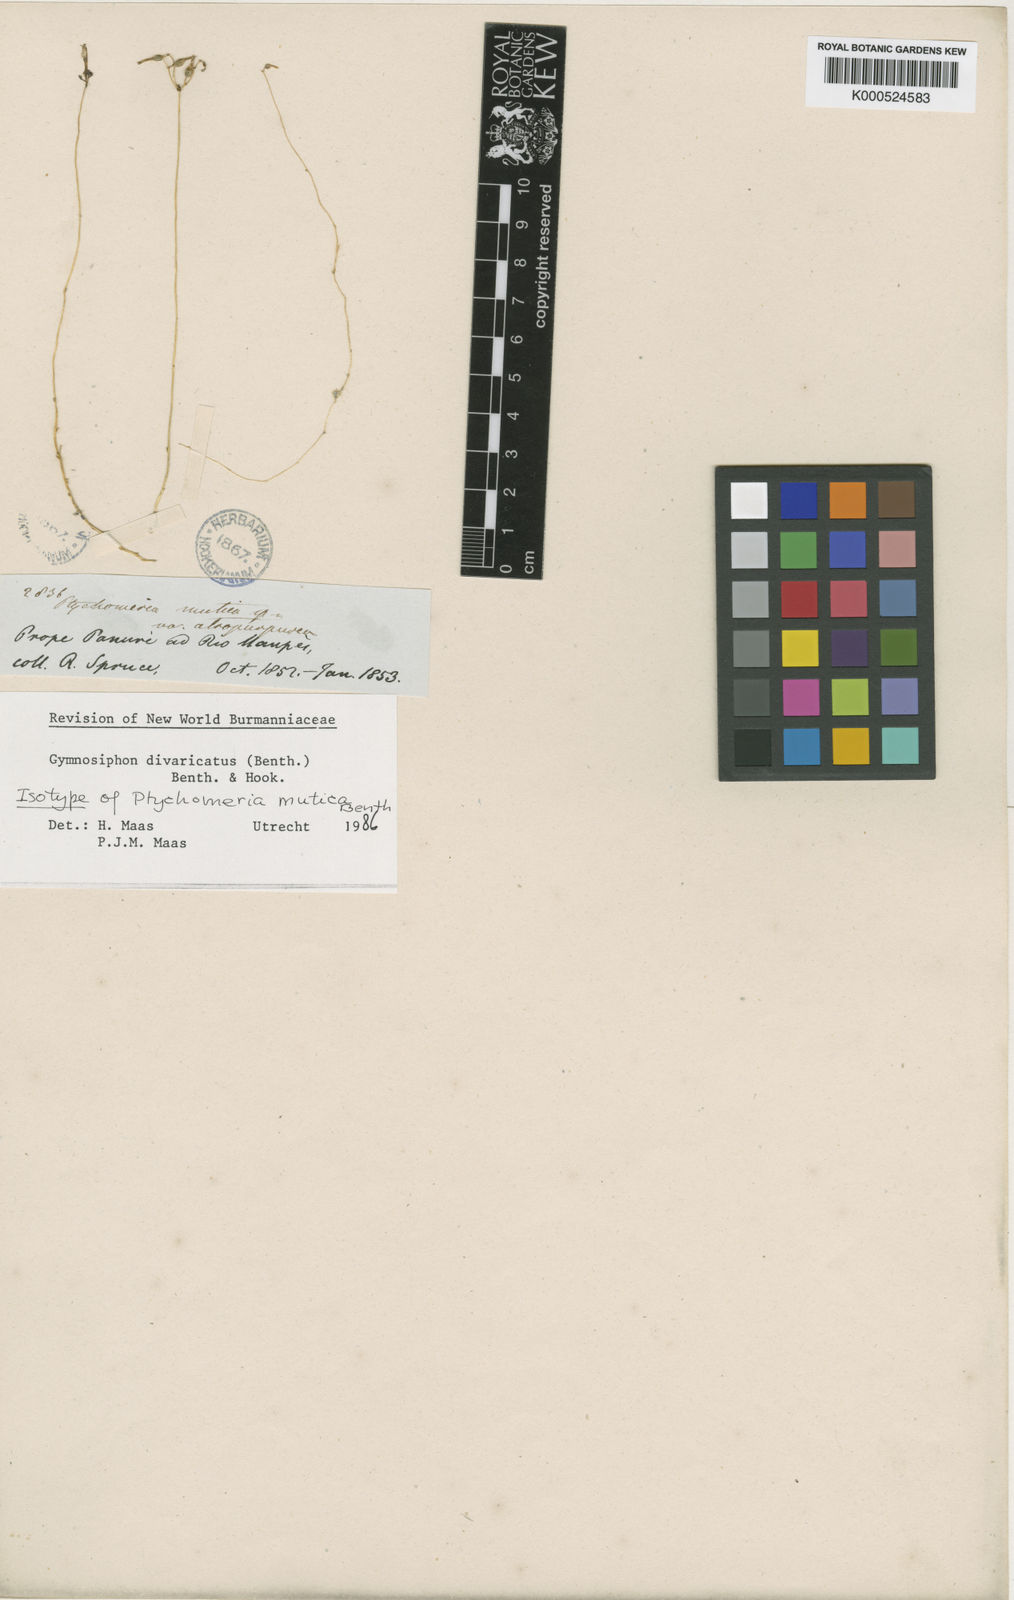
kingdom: Plantae
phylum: Tracheophyta
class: Liliopsida
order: Dioscoreales
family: Burmanniaceae
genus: Gymnosiphon
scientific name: Gymnosiphon divaricatus
